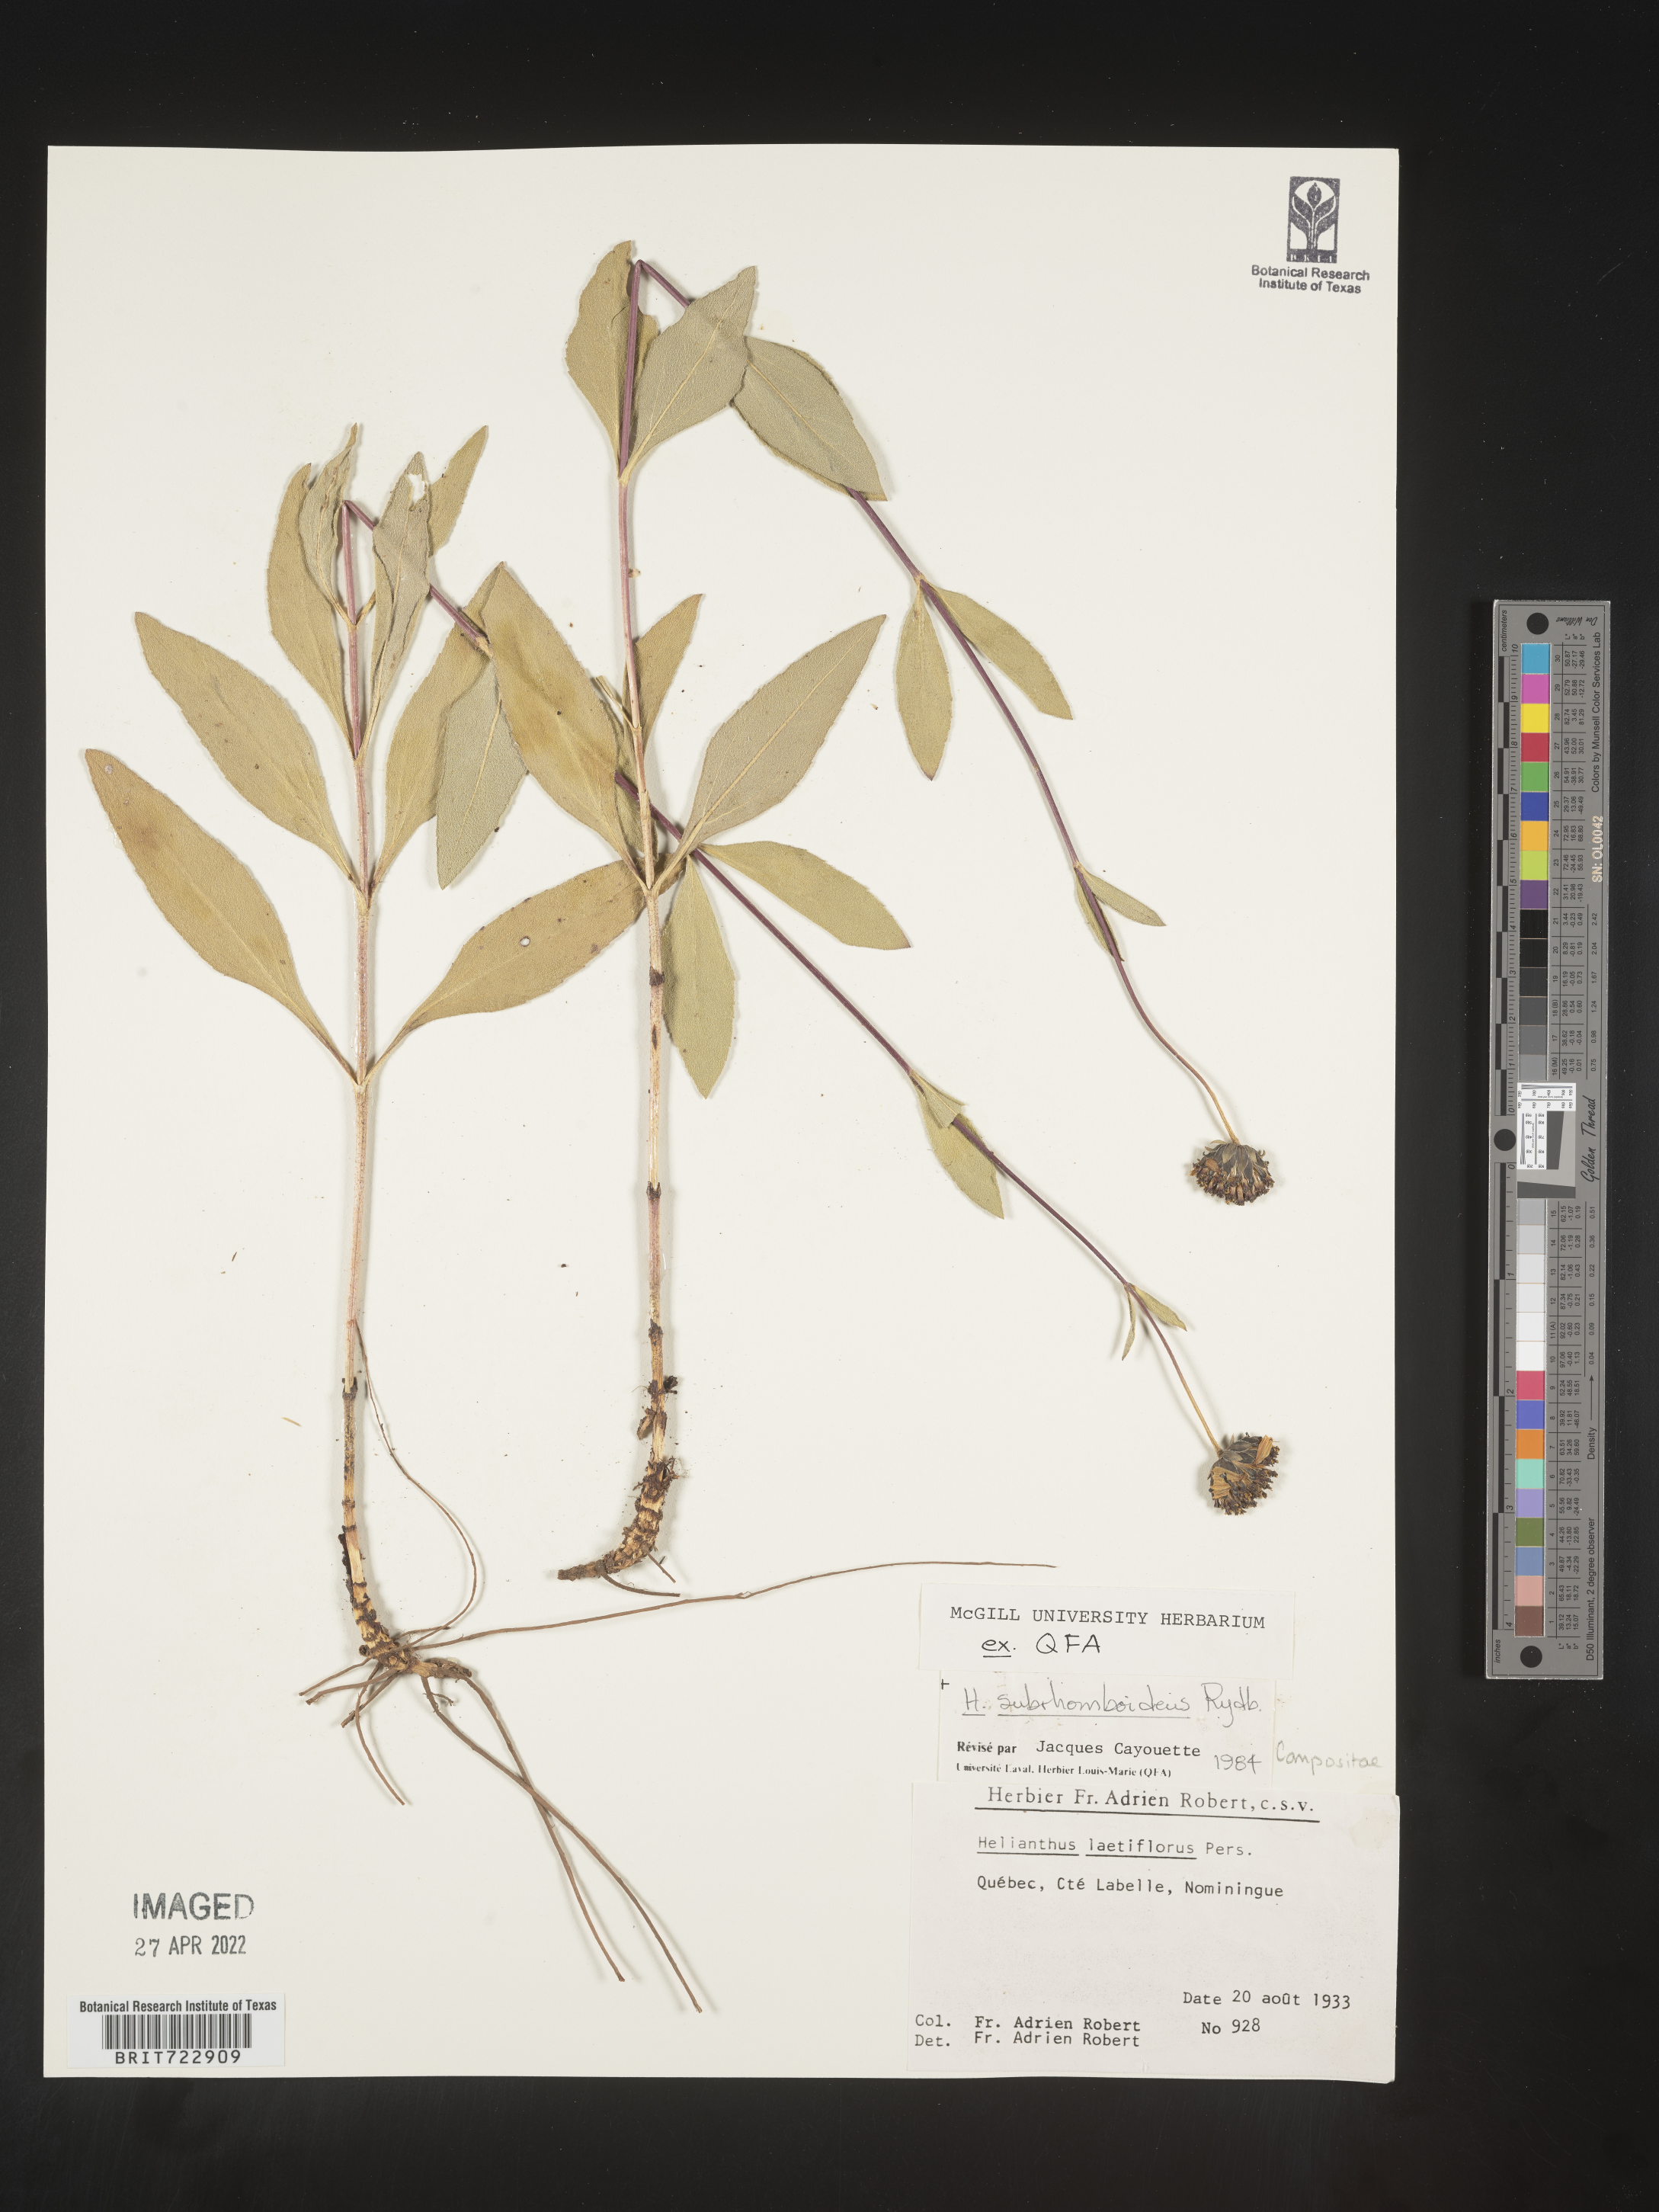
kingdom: Plantae
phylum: Tracheophyta
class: Magnoliopsida
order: Asterales
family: Asteraceae
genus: Helianthus
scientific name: Helianthus
